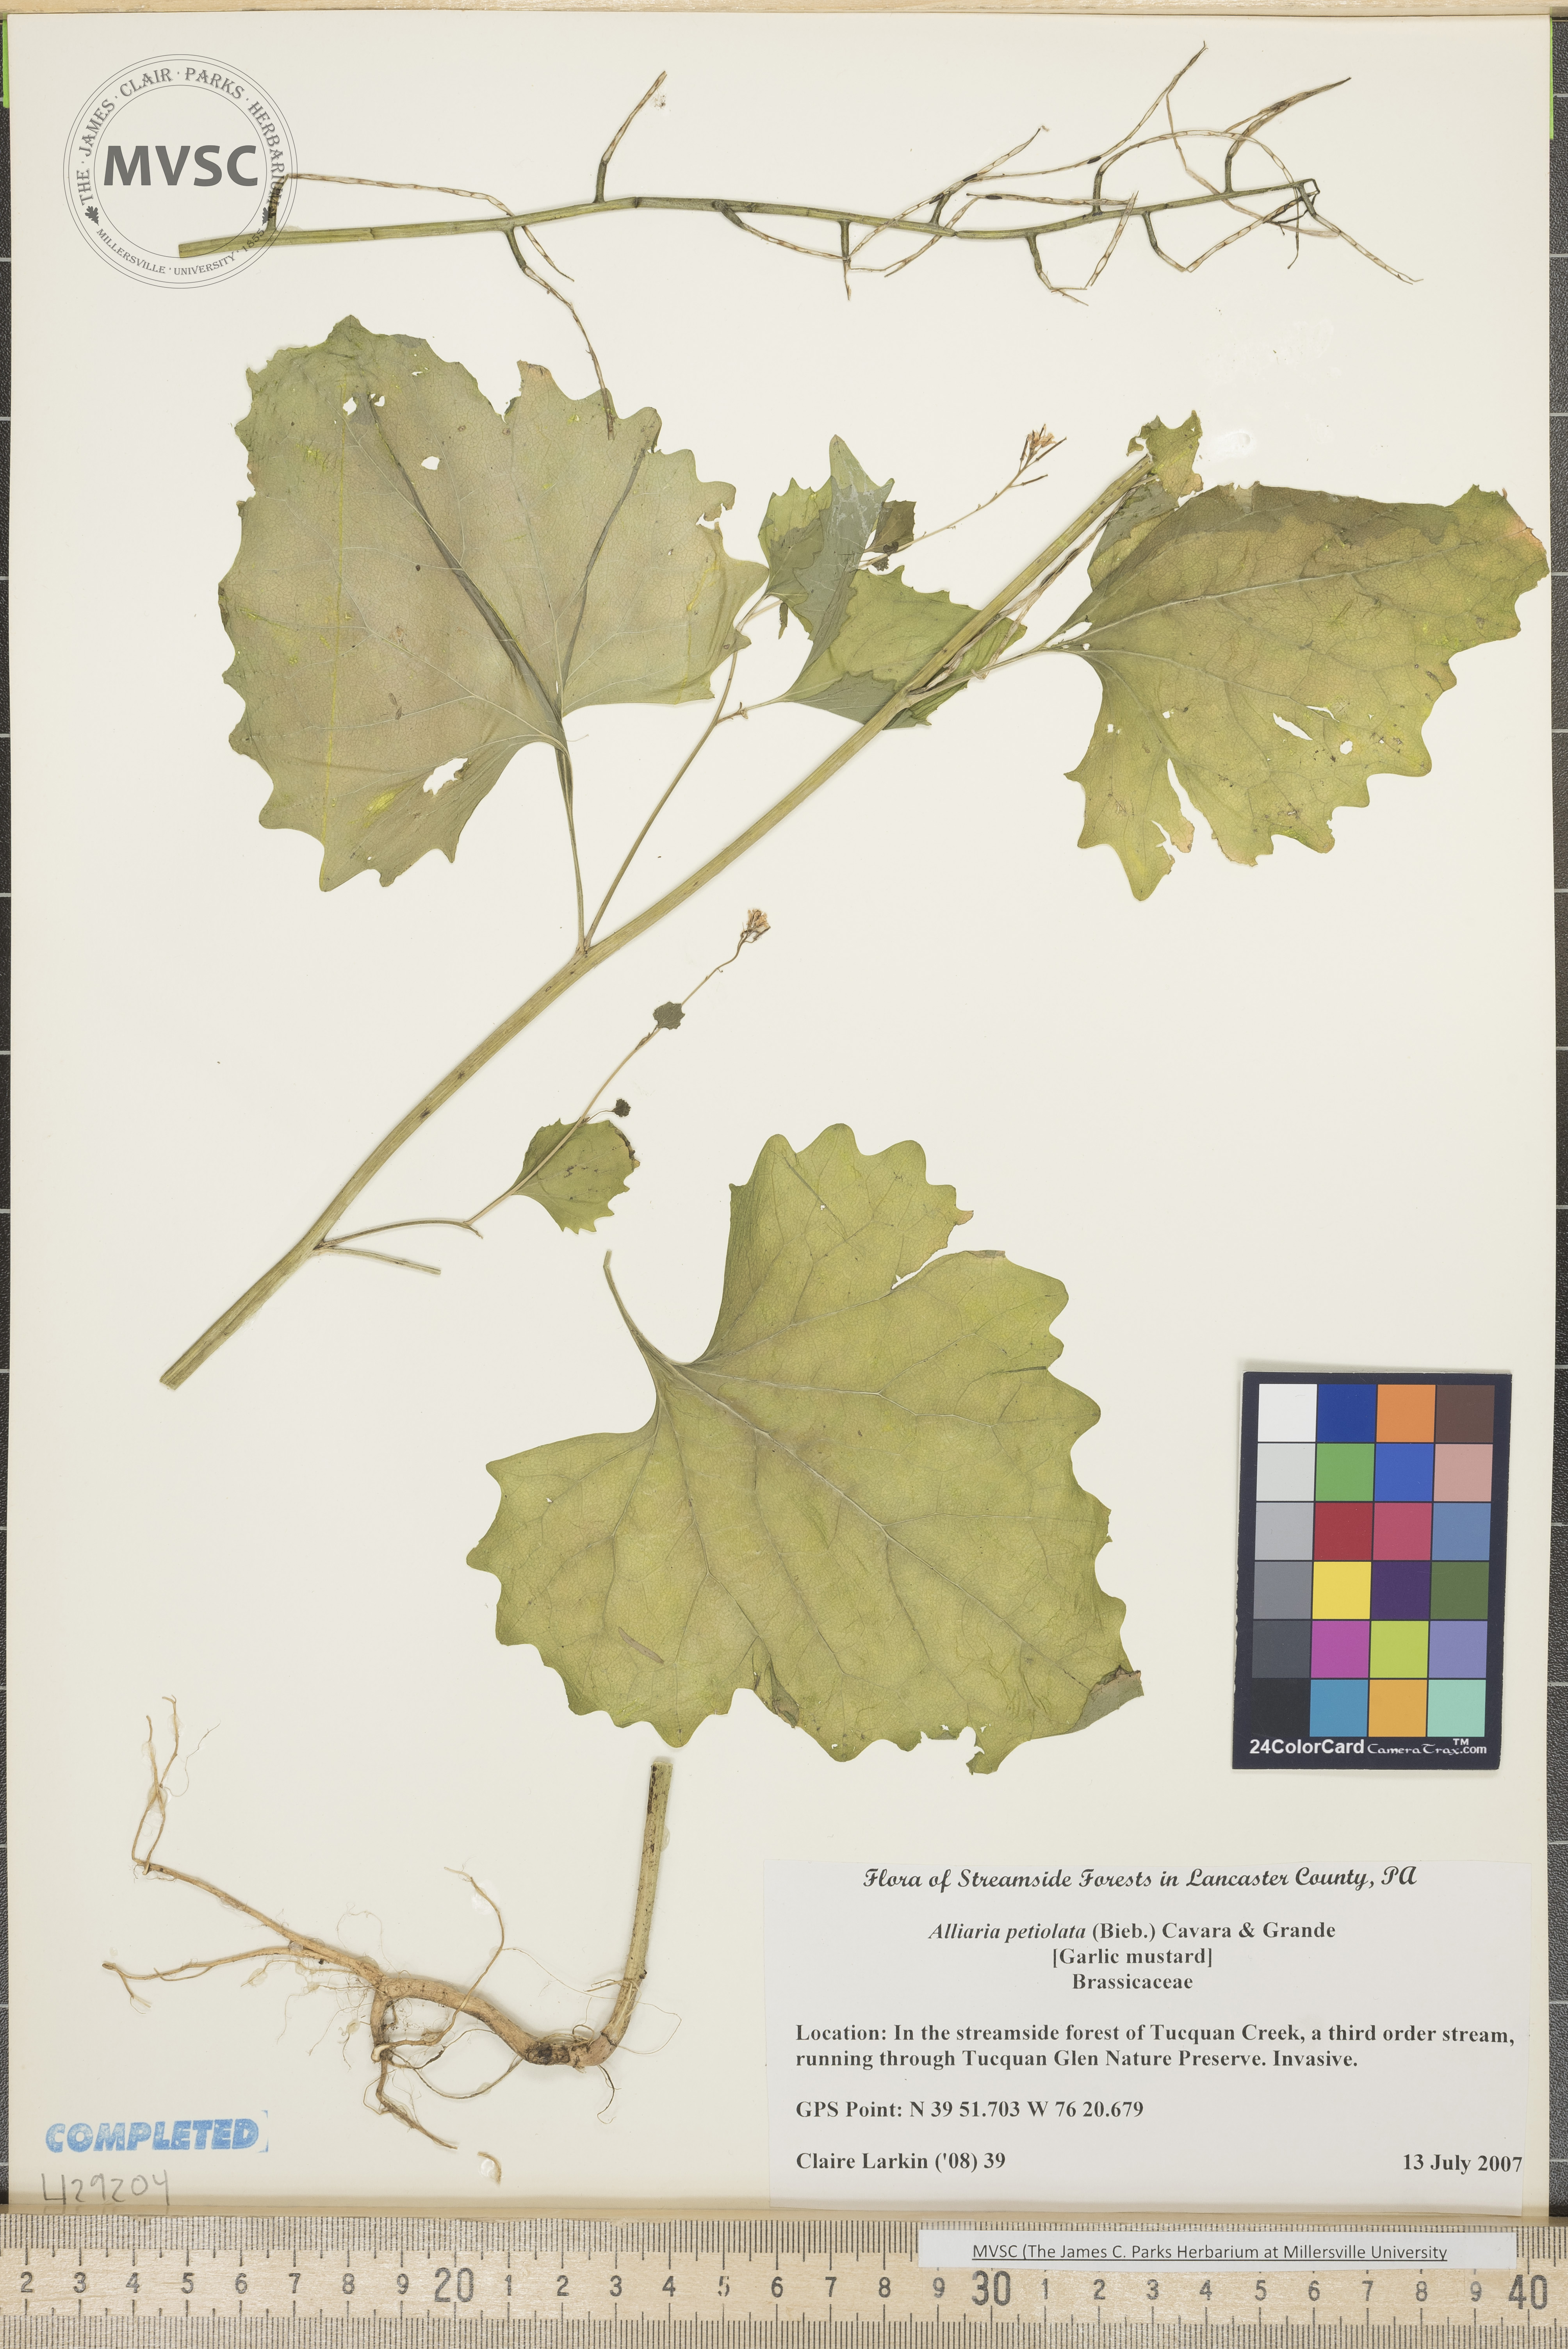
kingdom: Plantae
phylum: Tracheophyta
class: Magnoliopsida
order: Brassicales
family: Brassicaceae
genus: Alliaria
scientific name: Alliaria petiolata
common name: Garlic mustard
